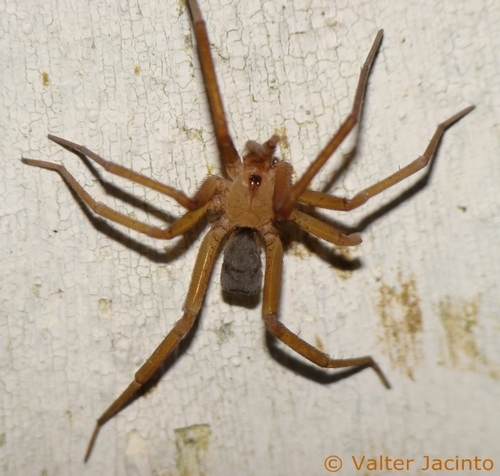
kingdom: Animalia
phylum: Arthropoda
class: Arachnida
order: Araneae
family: Filistatidae
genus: Filistata
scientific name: Filistata insidiatrix
